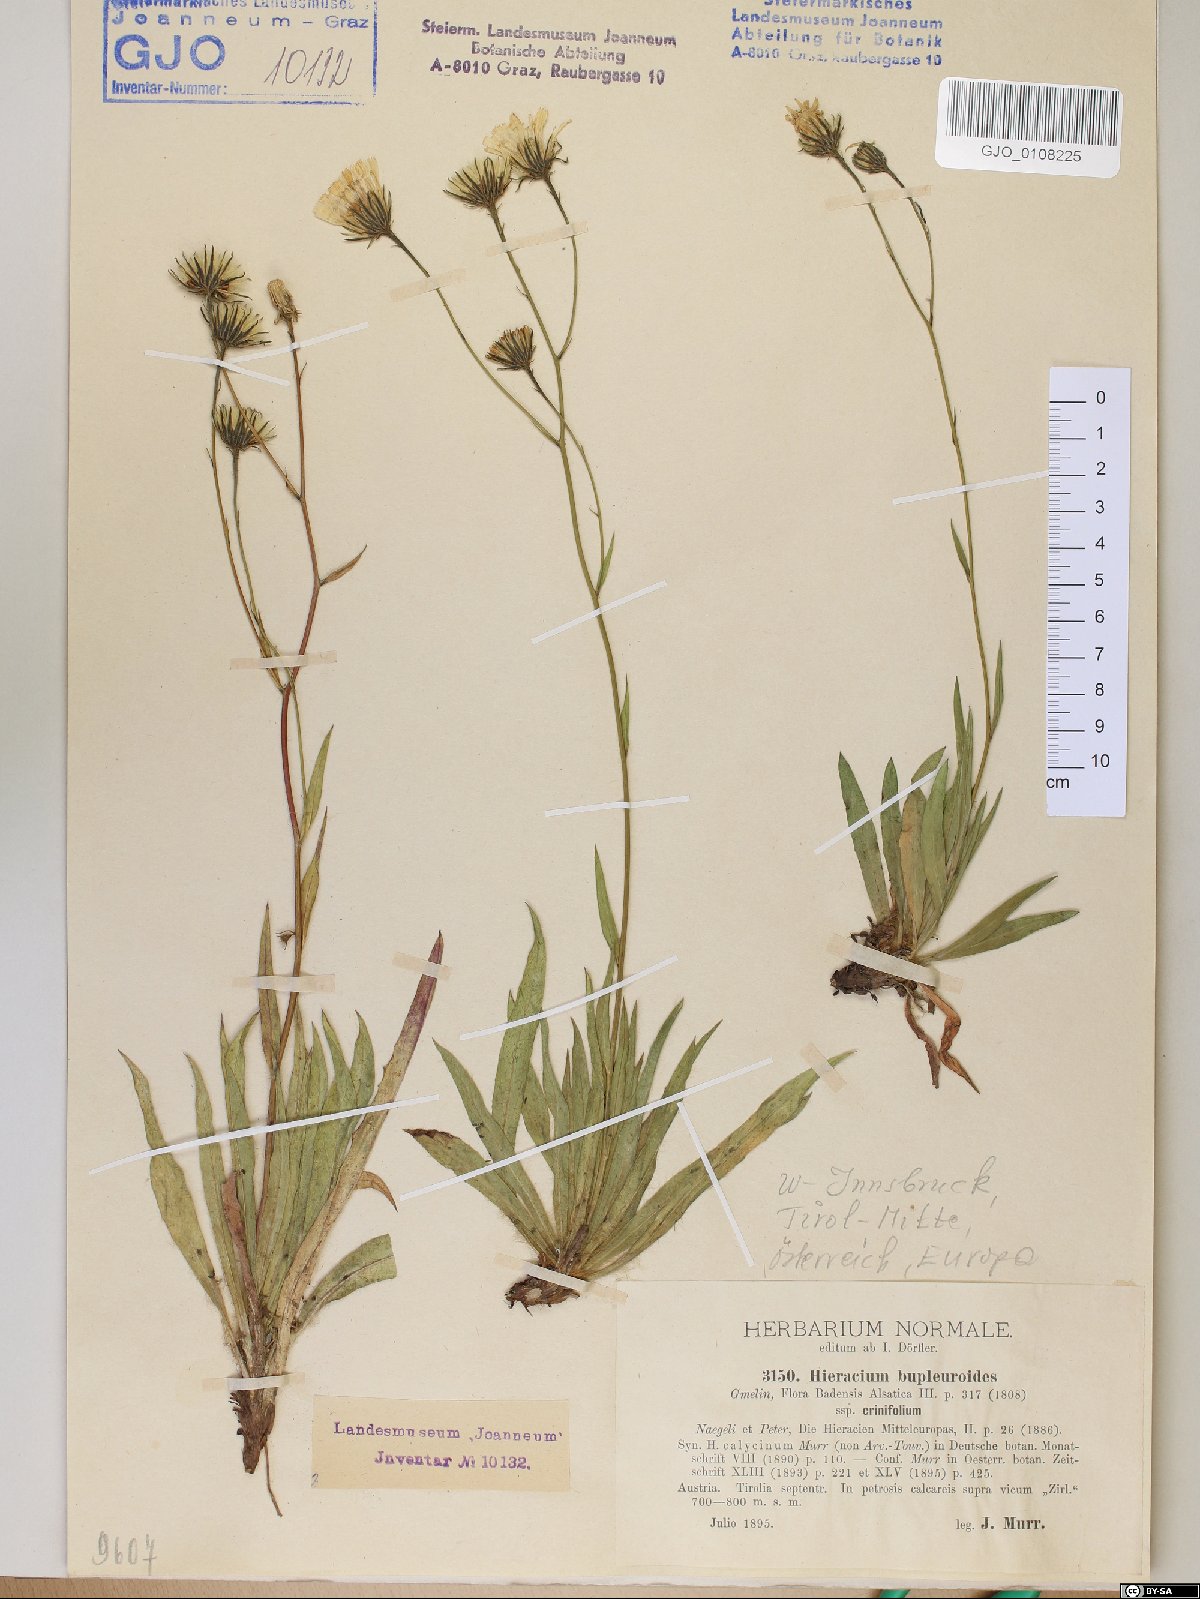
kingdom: Plantae
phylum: Tracheophyta
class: Magnoliopsida
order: Asterales
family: Asteraceae
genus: Hieracium
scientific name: Hieracium crinifolium
